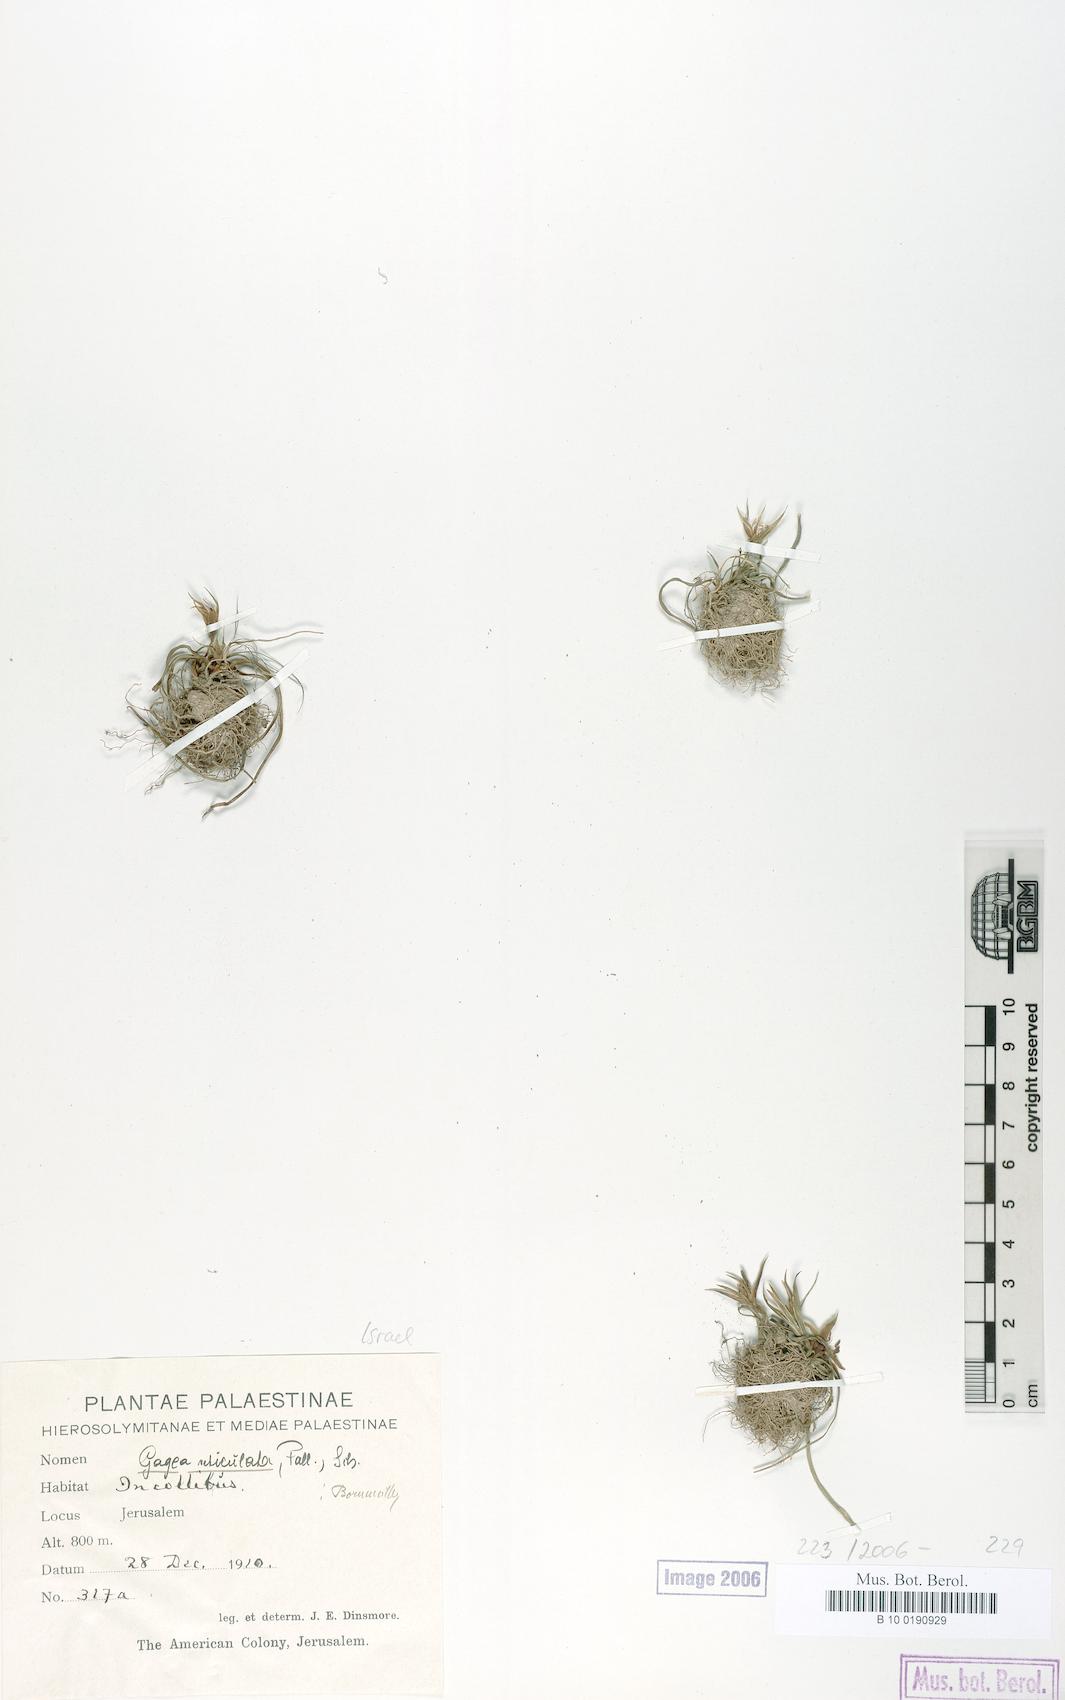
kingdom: Plantae
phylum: Tracheophyta
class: Liliopsida
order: Liliales
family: Liliaceae
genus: Gagea
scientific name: Gagea reticulata
